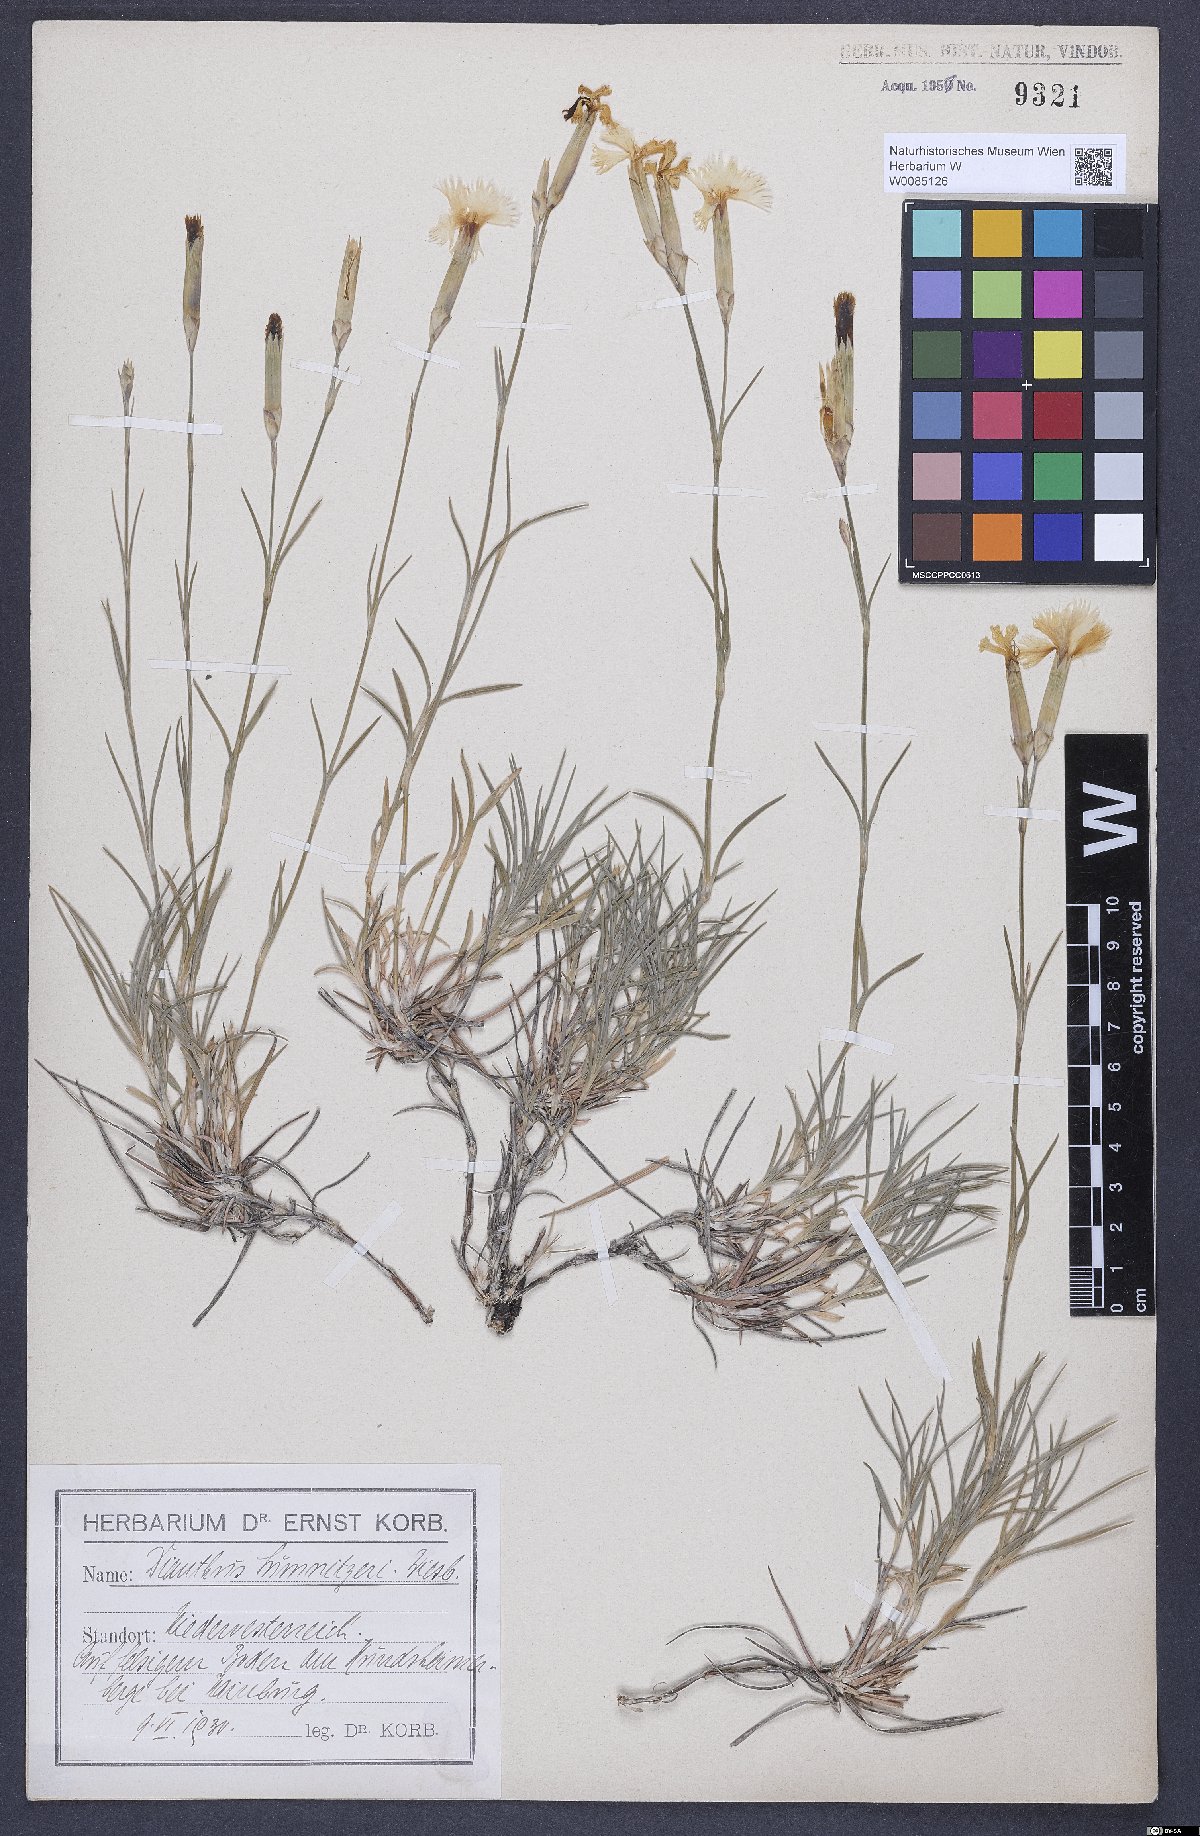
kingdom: Plantae
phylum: Tracheophyta
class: Magnoliopsida
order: Caryophyllales
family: Caryophyllaceae
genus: Dianthus
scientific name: Dianthus praecox
